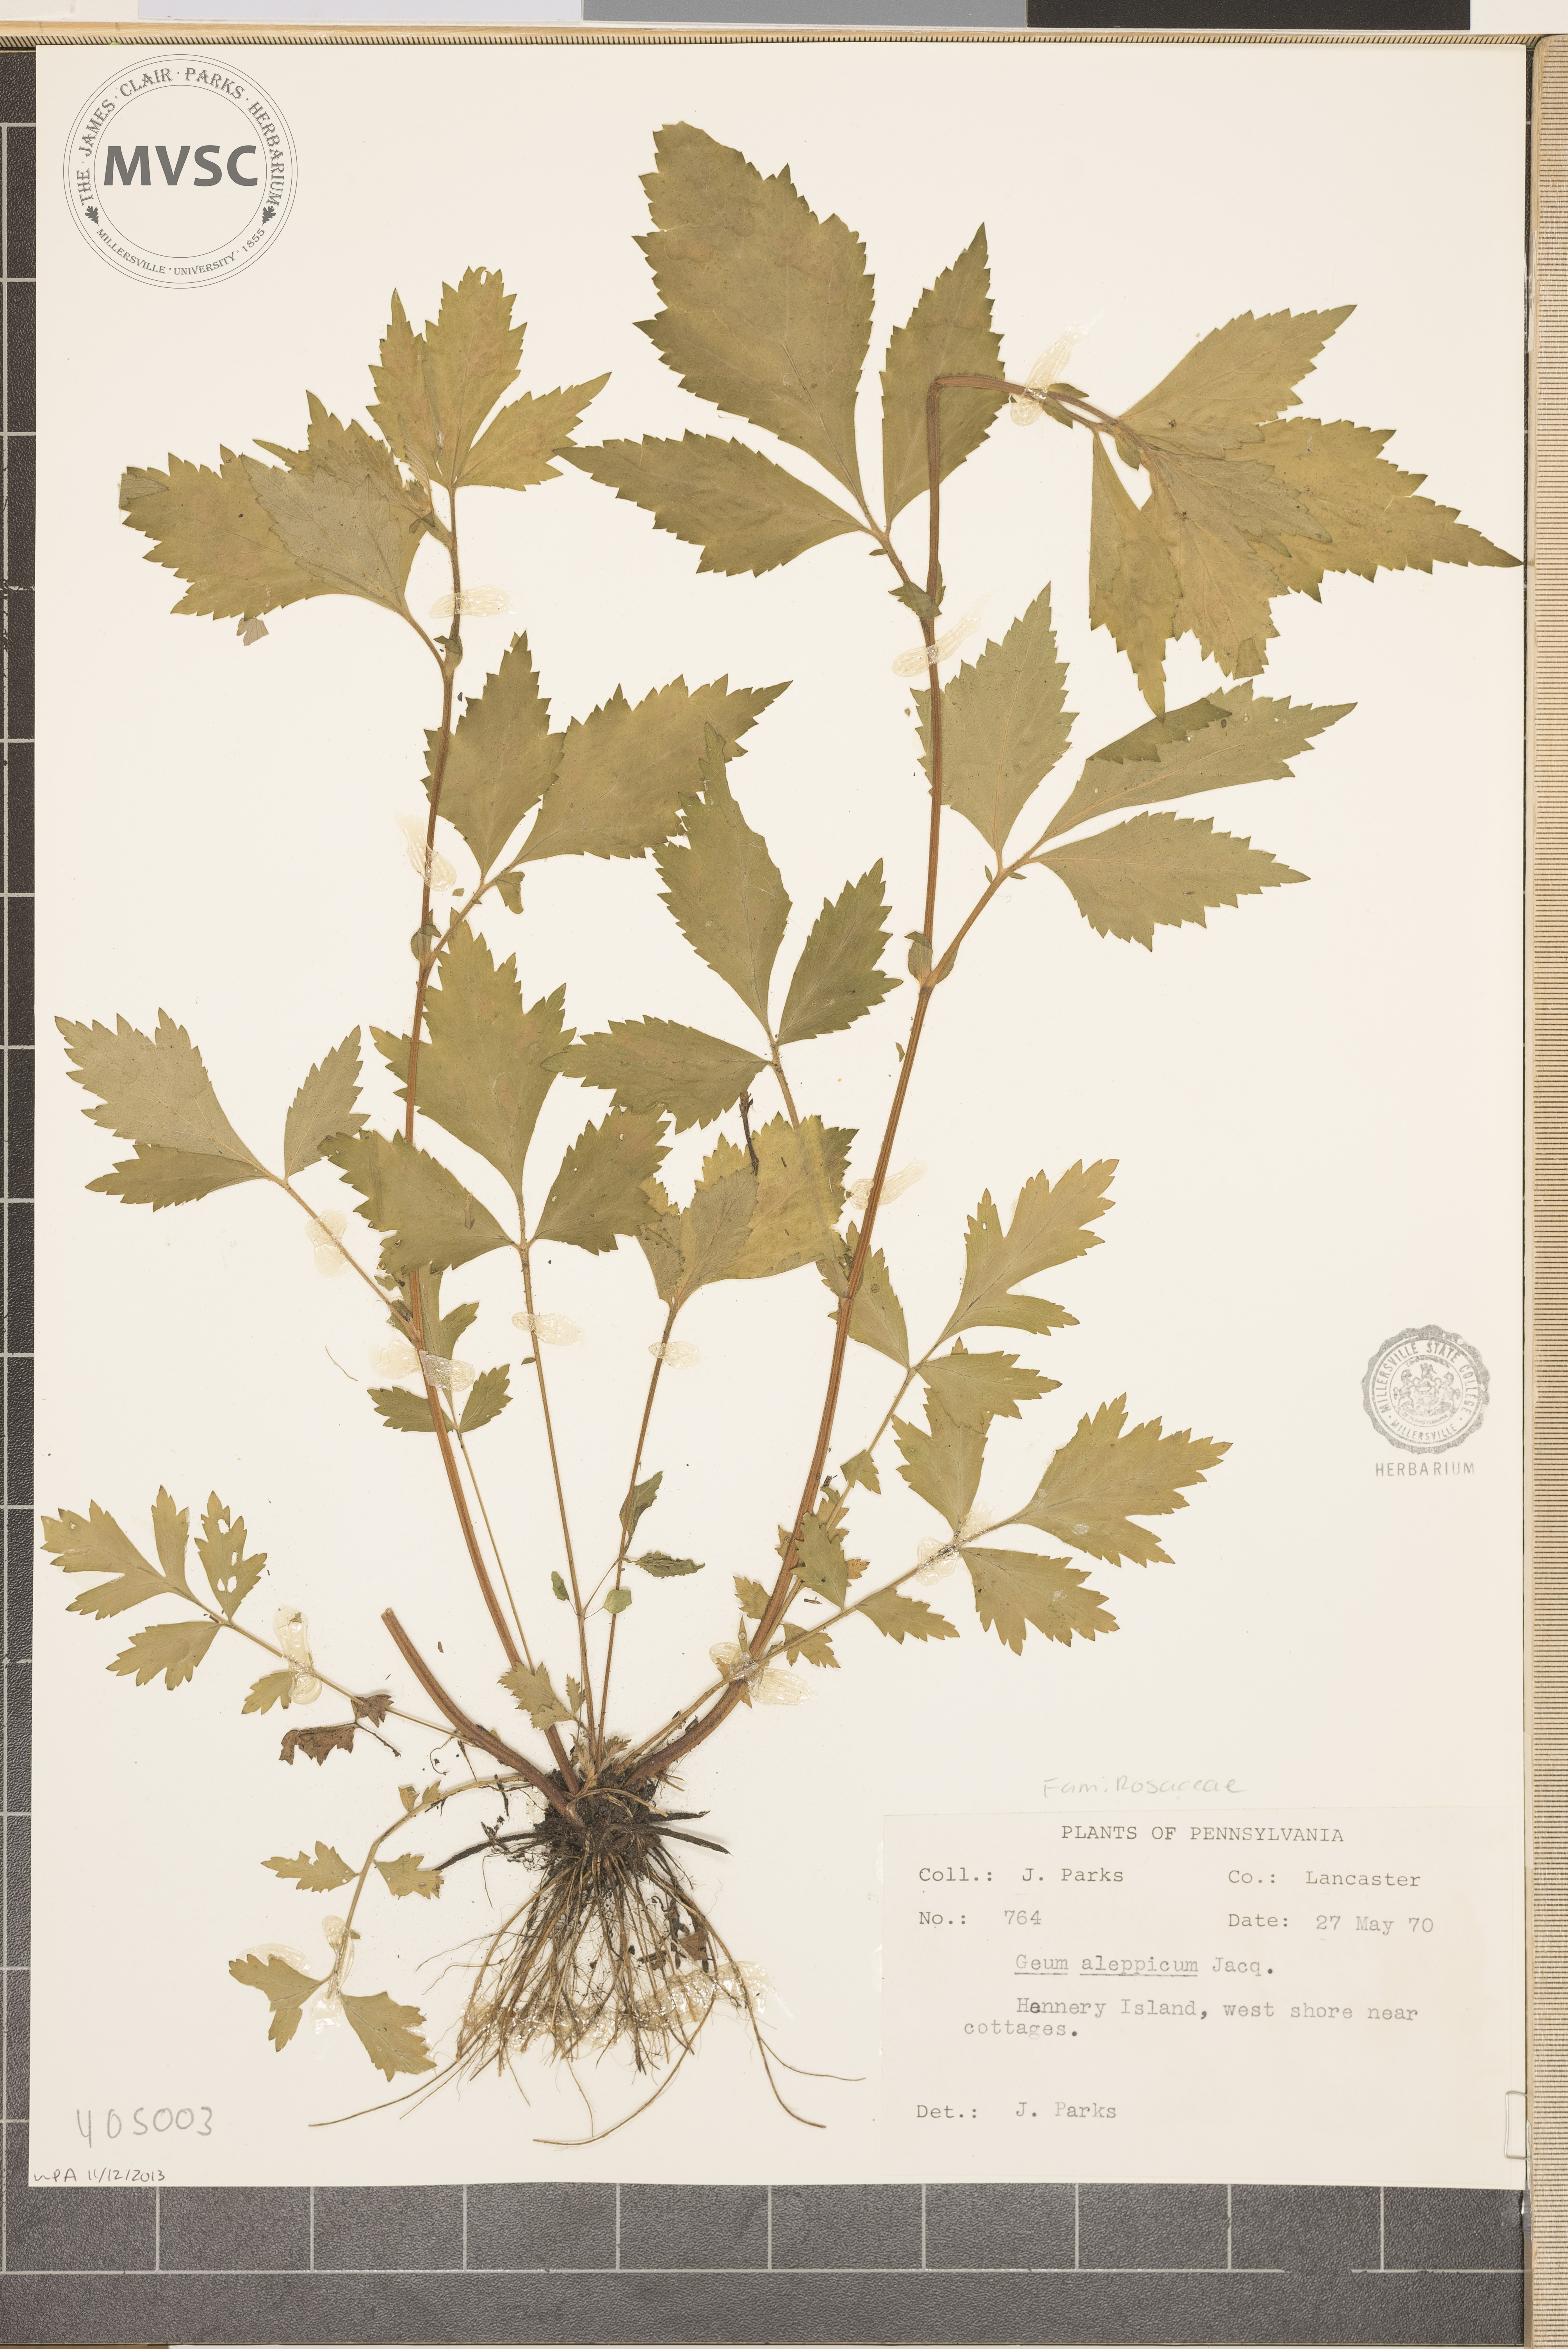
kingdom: Plantae
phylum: Tracheophyta
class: Magnoliopsida
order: Rosales
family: Rosaceae
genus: Geum
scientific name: Geum aleppicum
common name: Yellow avens
